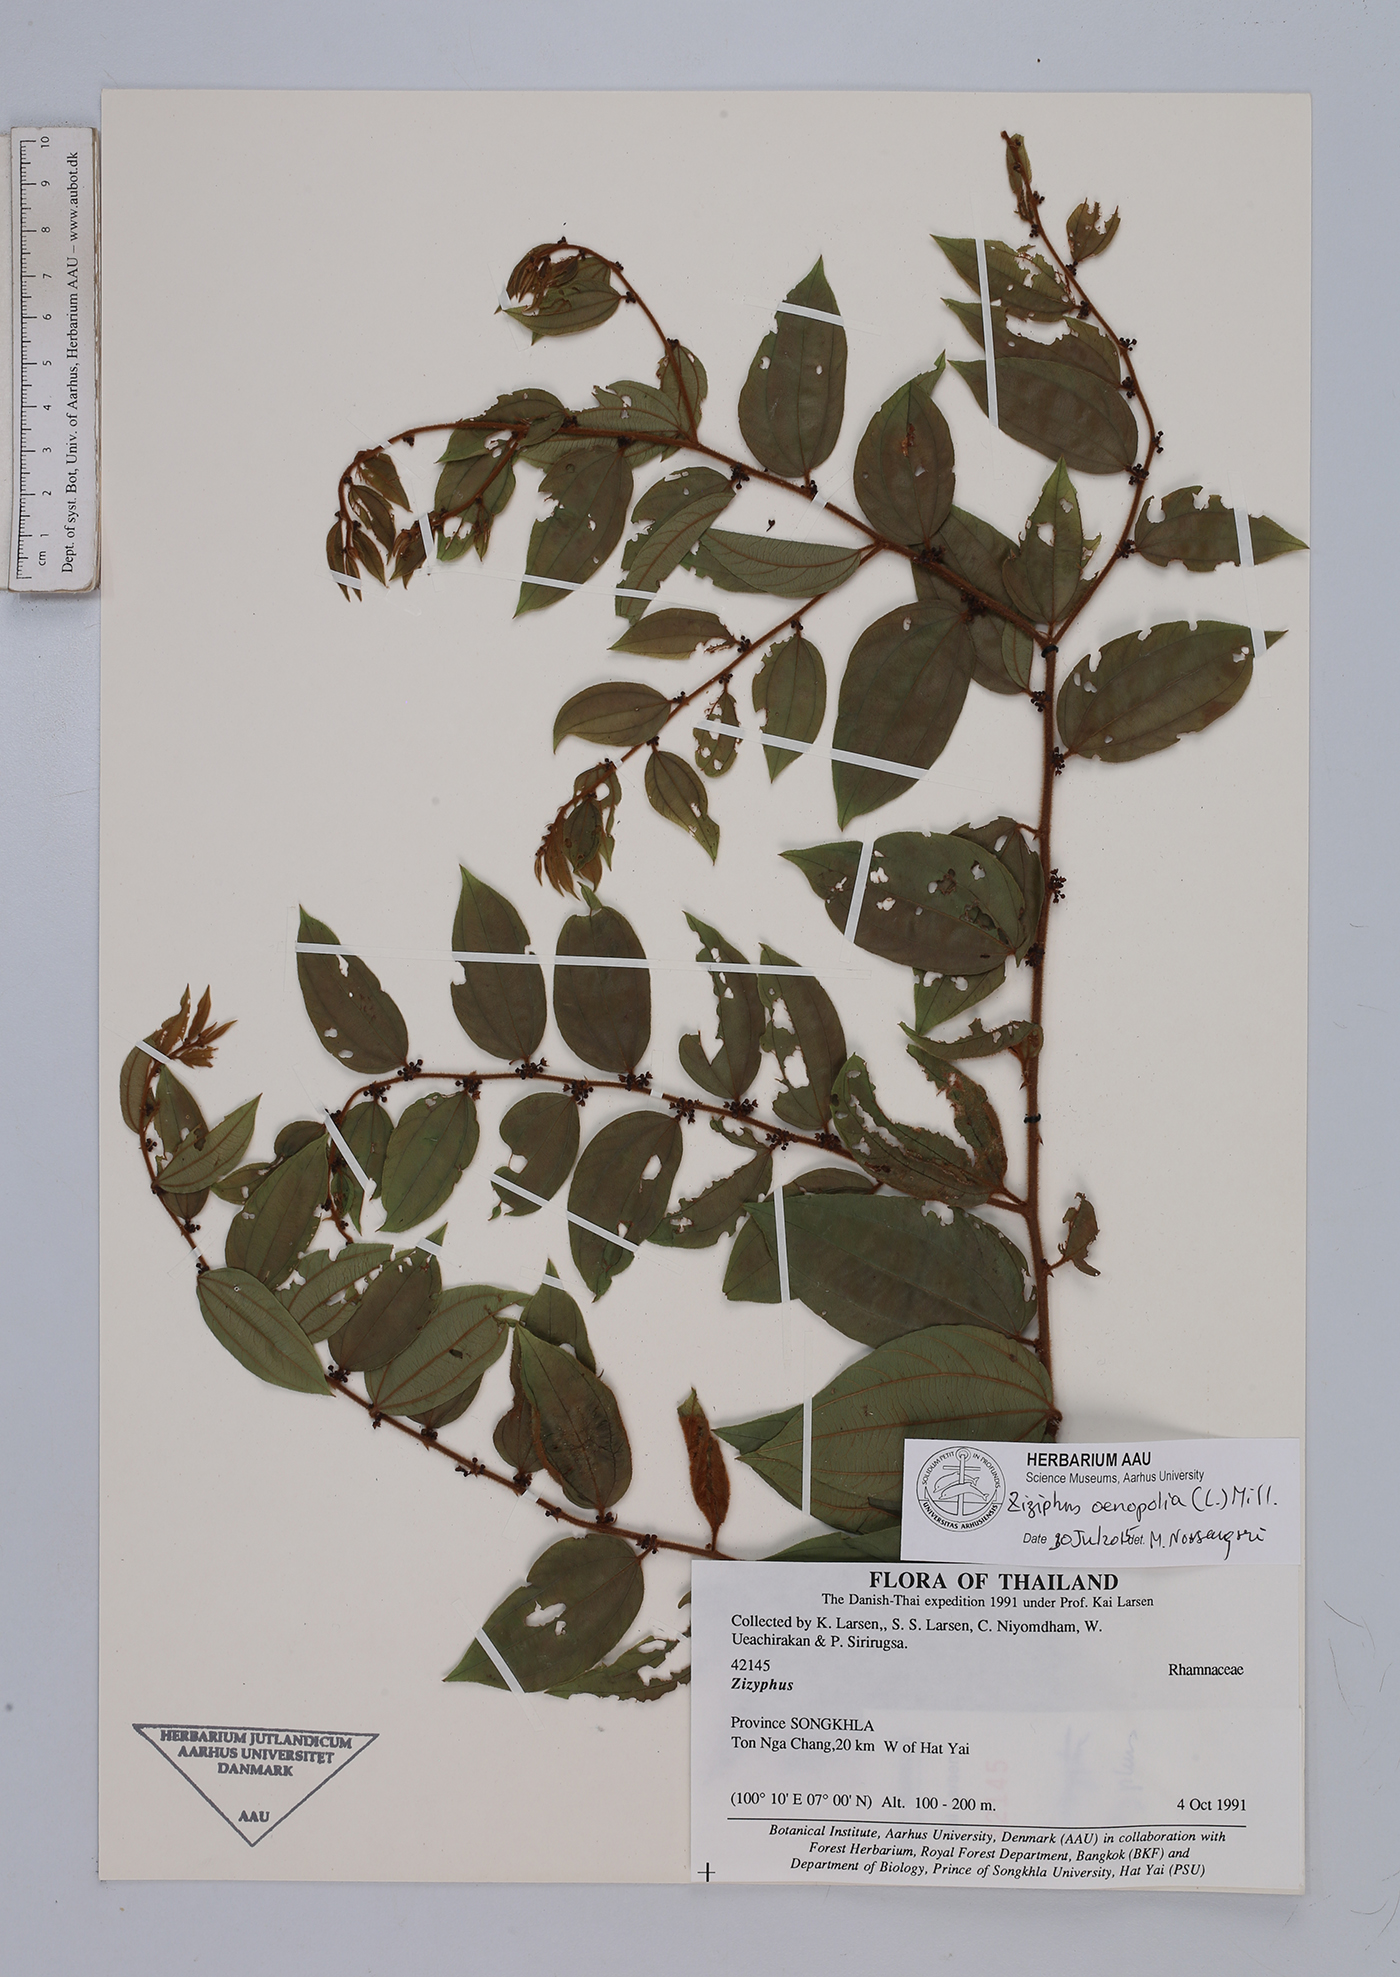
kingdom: Plantae
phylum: Tracheophyta
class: Magnoliopsida
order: Rosales
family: Rhamnaceae
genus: Ziziphus
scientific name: Ziziphus oenopolia
